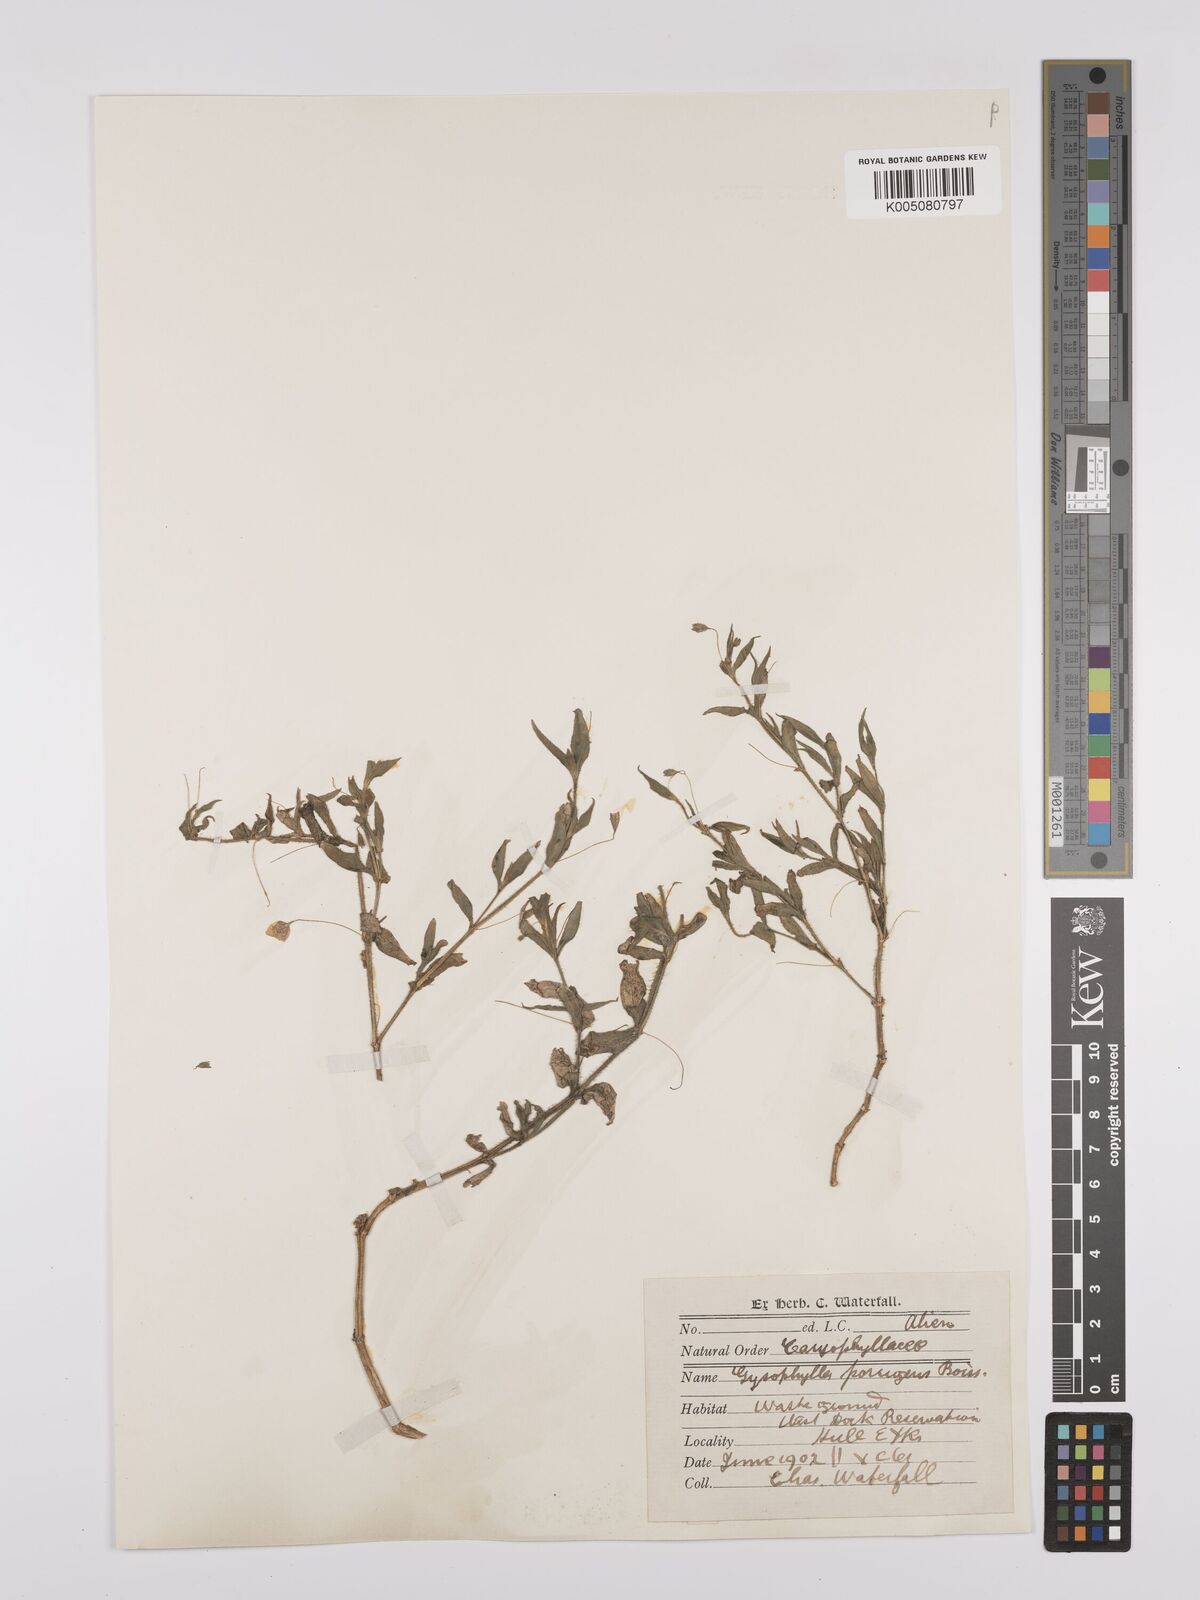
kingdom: Plantae
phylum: Tracheophyta
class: Magnoliopsida
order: Caryophyllales
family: Caryophyllaceae
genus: Gypsophila
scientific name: Gypsophila pilosa
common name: Turkish baby's-breath
